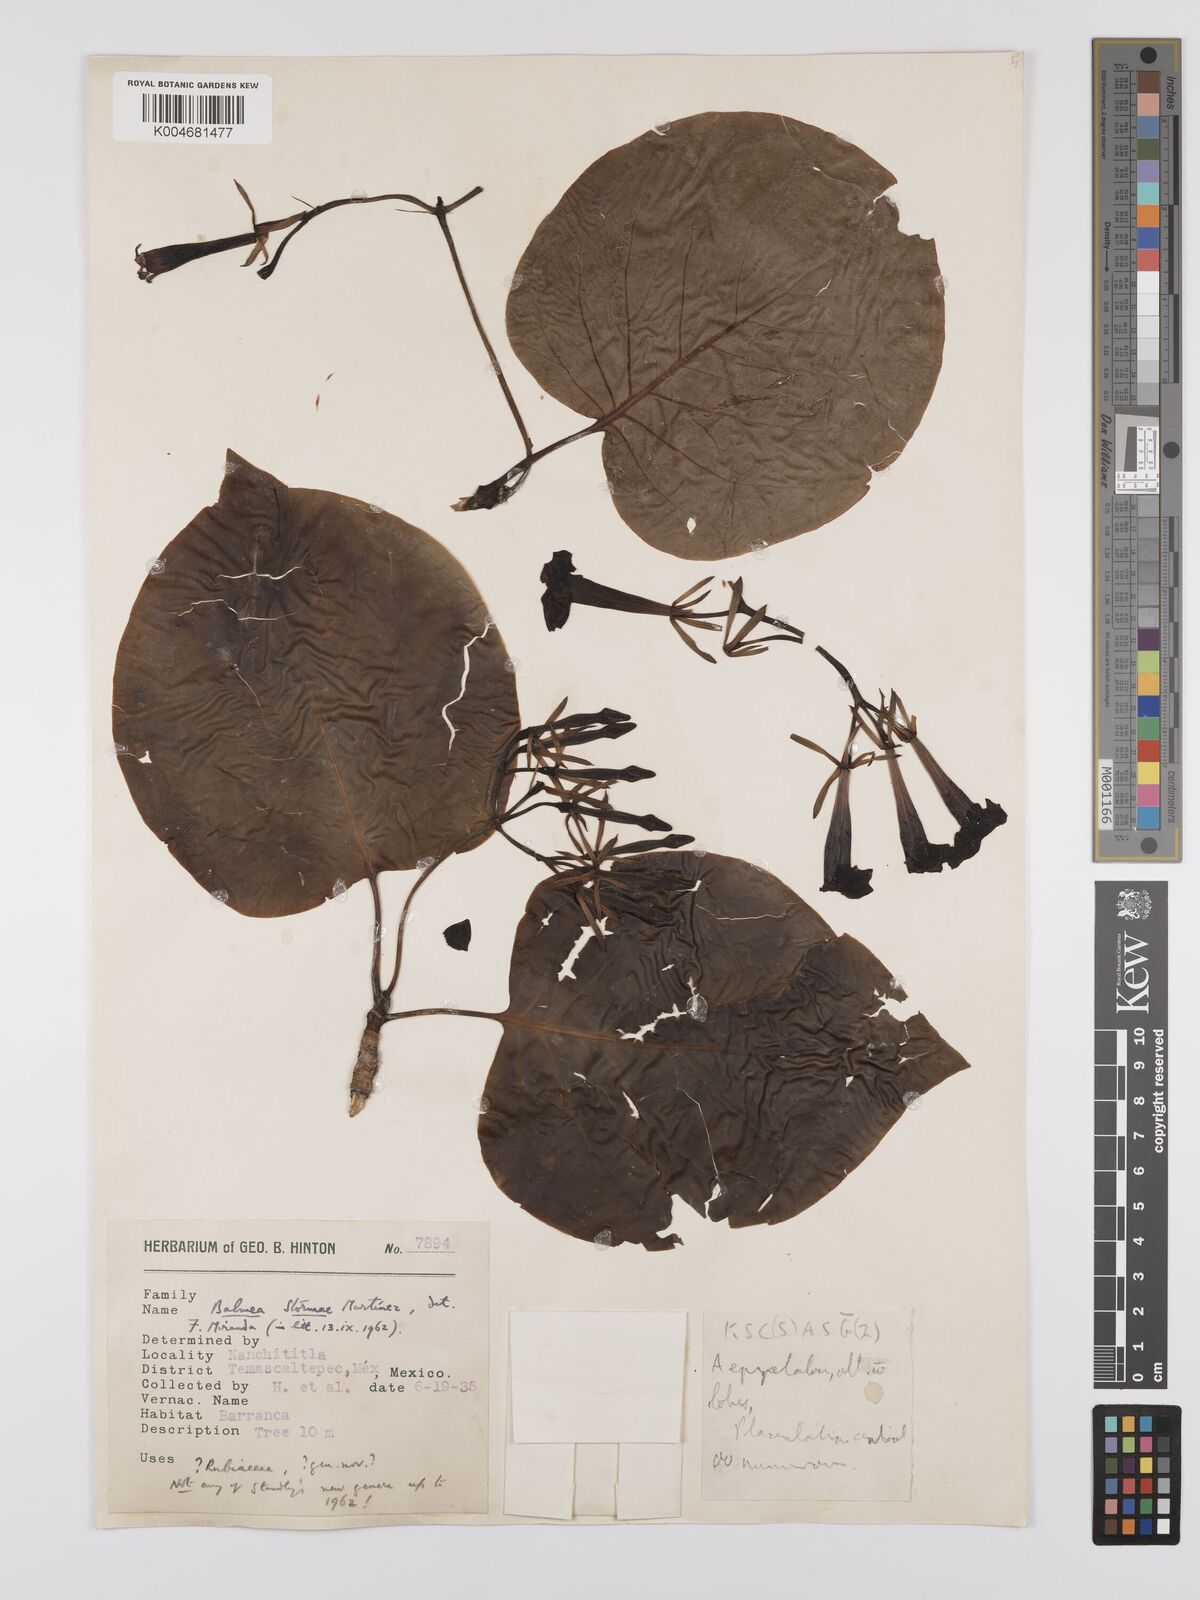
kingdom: Plantae
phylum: Tracheophyta
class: Magnoliopsida
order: Gentianales
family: Rubiaceae
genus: Balmea
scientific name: Balmea stormiae
